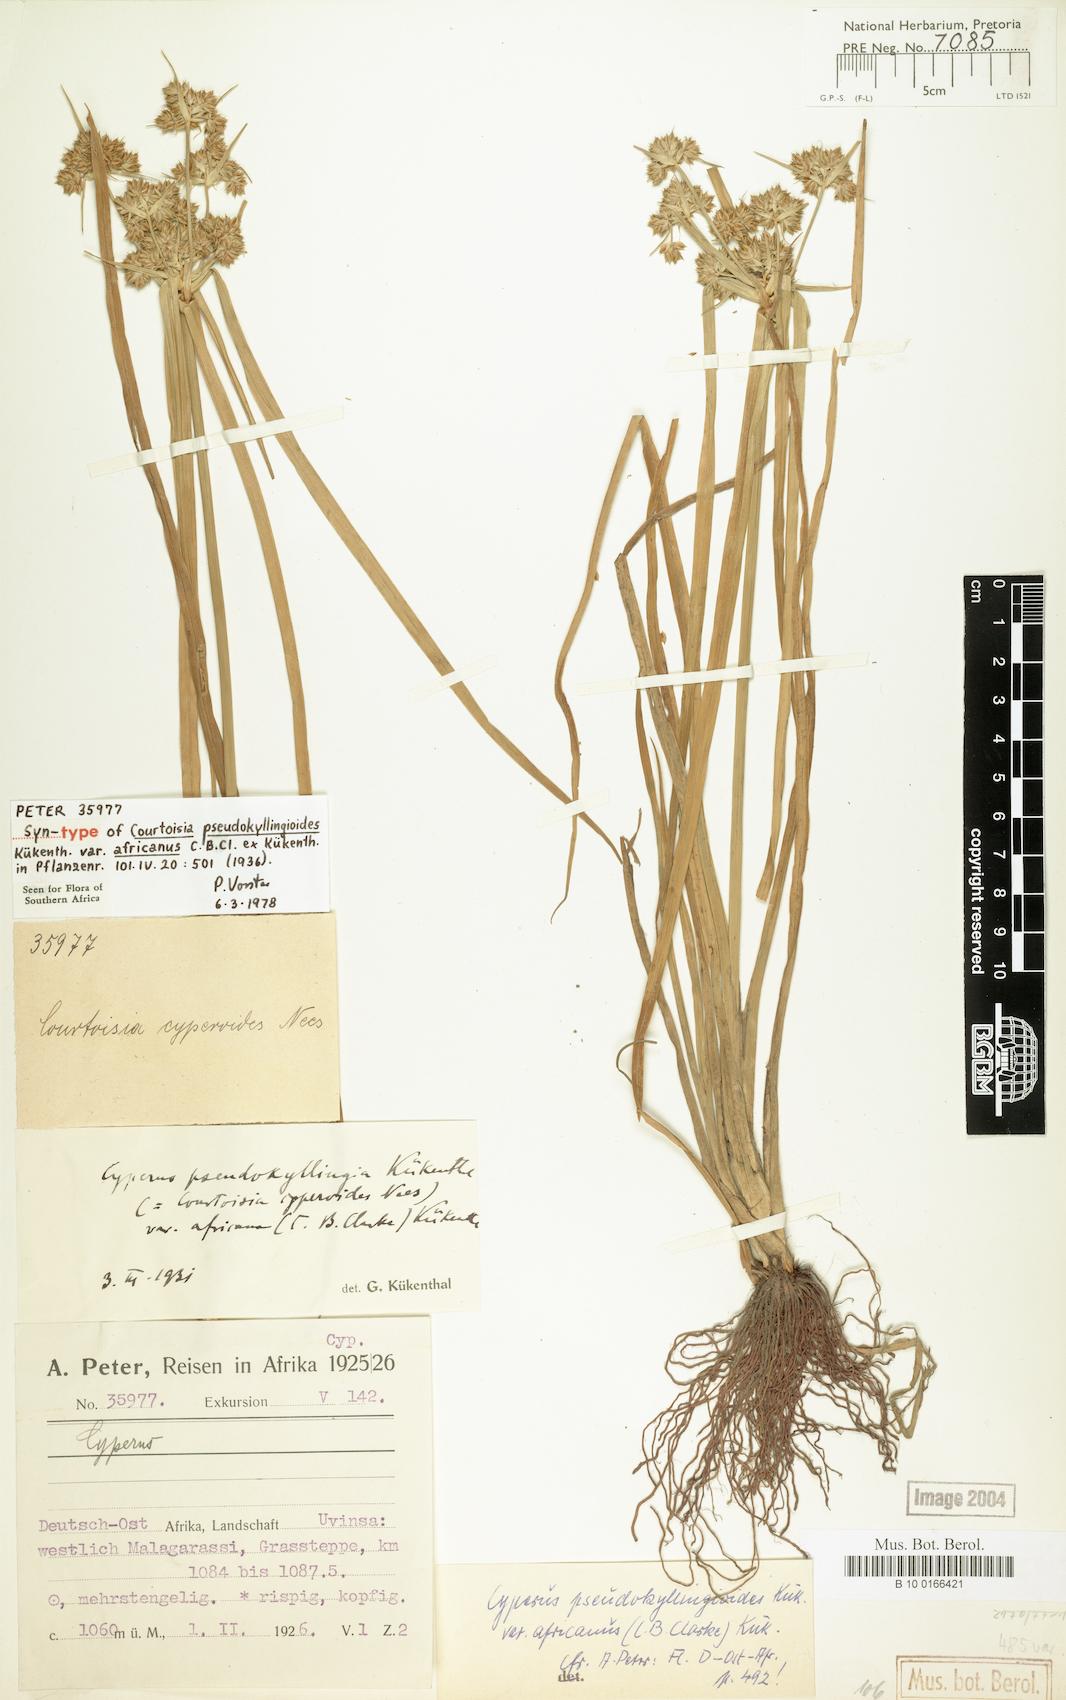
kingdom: Plantae
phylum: Tracheophyta
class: Liliopsida
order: Poales
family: Cyperaceae
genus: Cyperus
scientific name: Cyperus pseudokyllingioides
